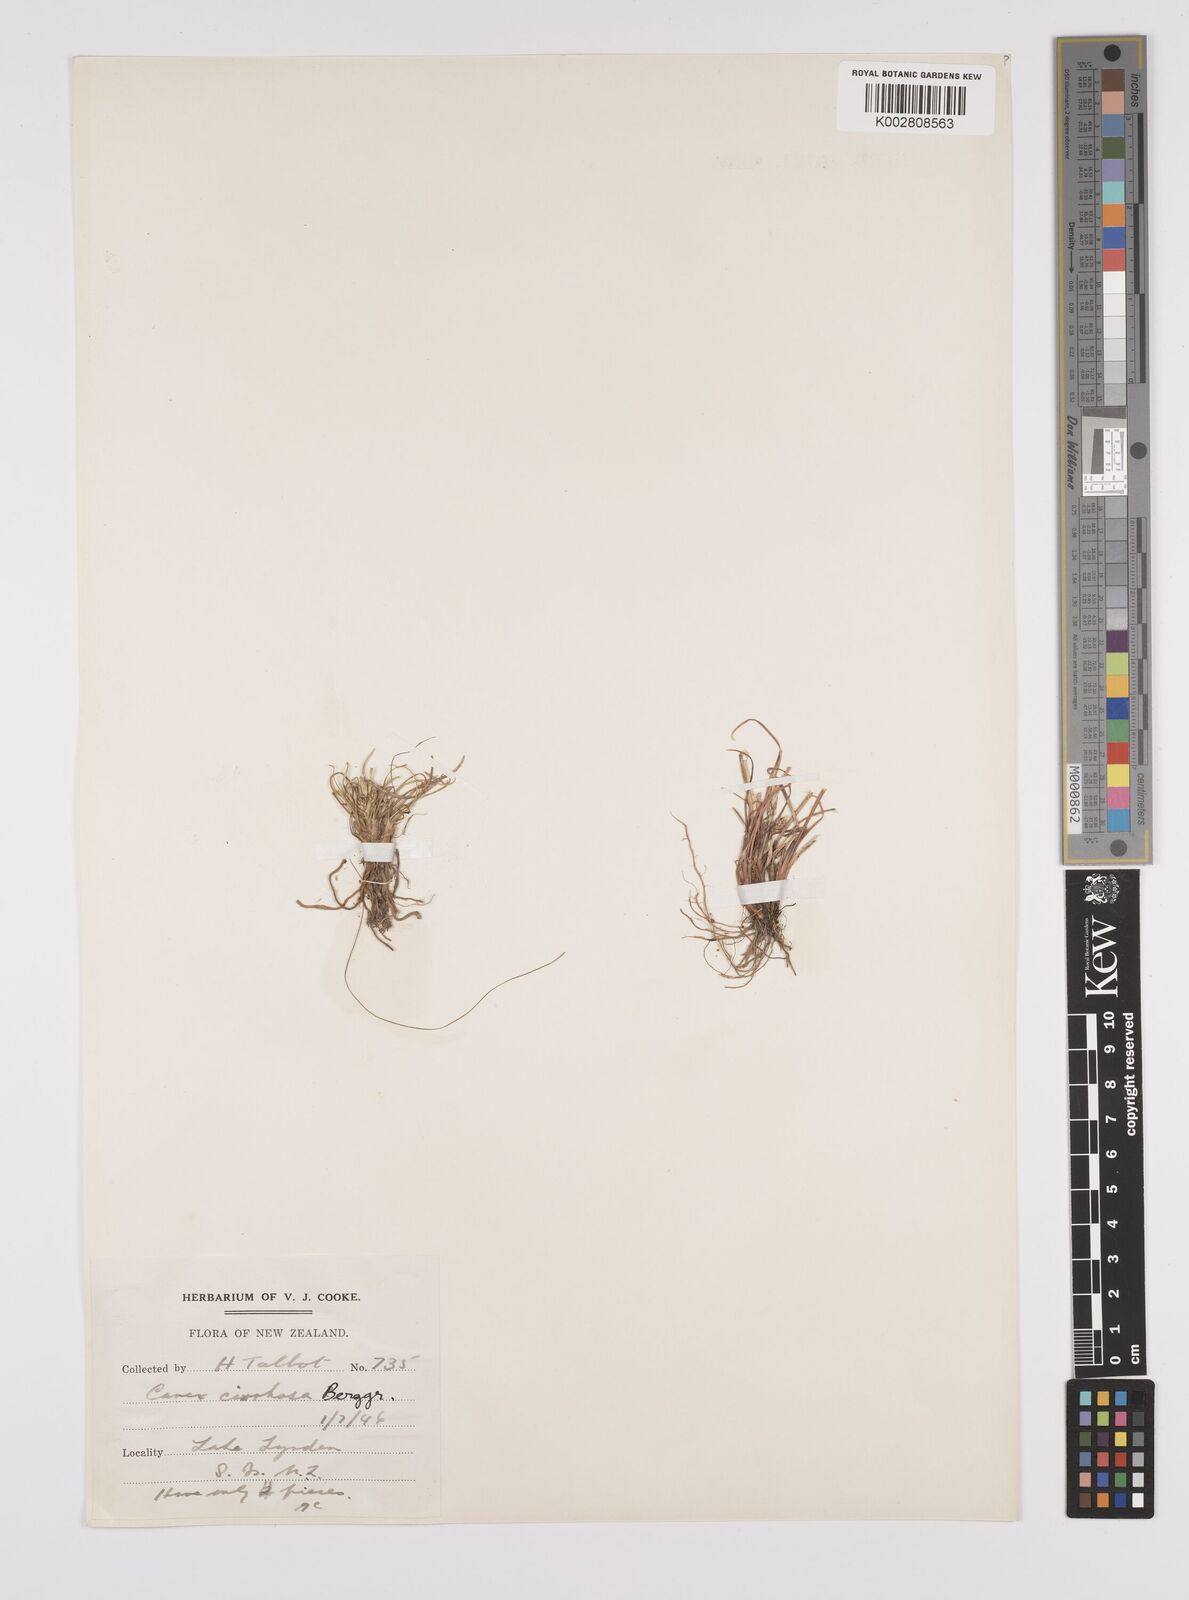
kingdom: Plantae
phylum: Tracheophyta
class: Liliopsida
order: Poales
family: Cyperaceae
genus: Carex
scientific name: Carex cirrhosa
